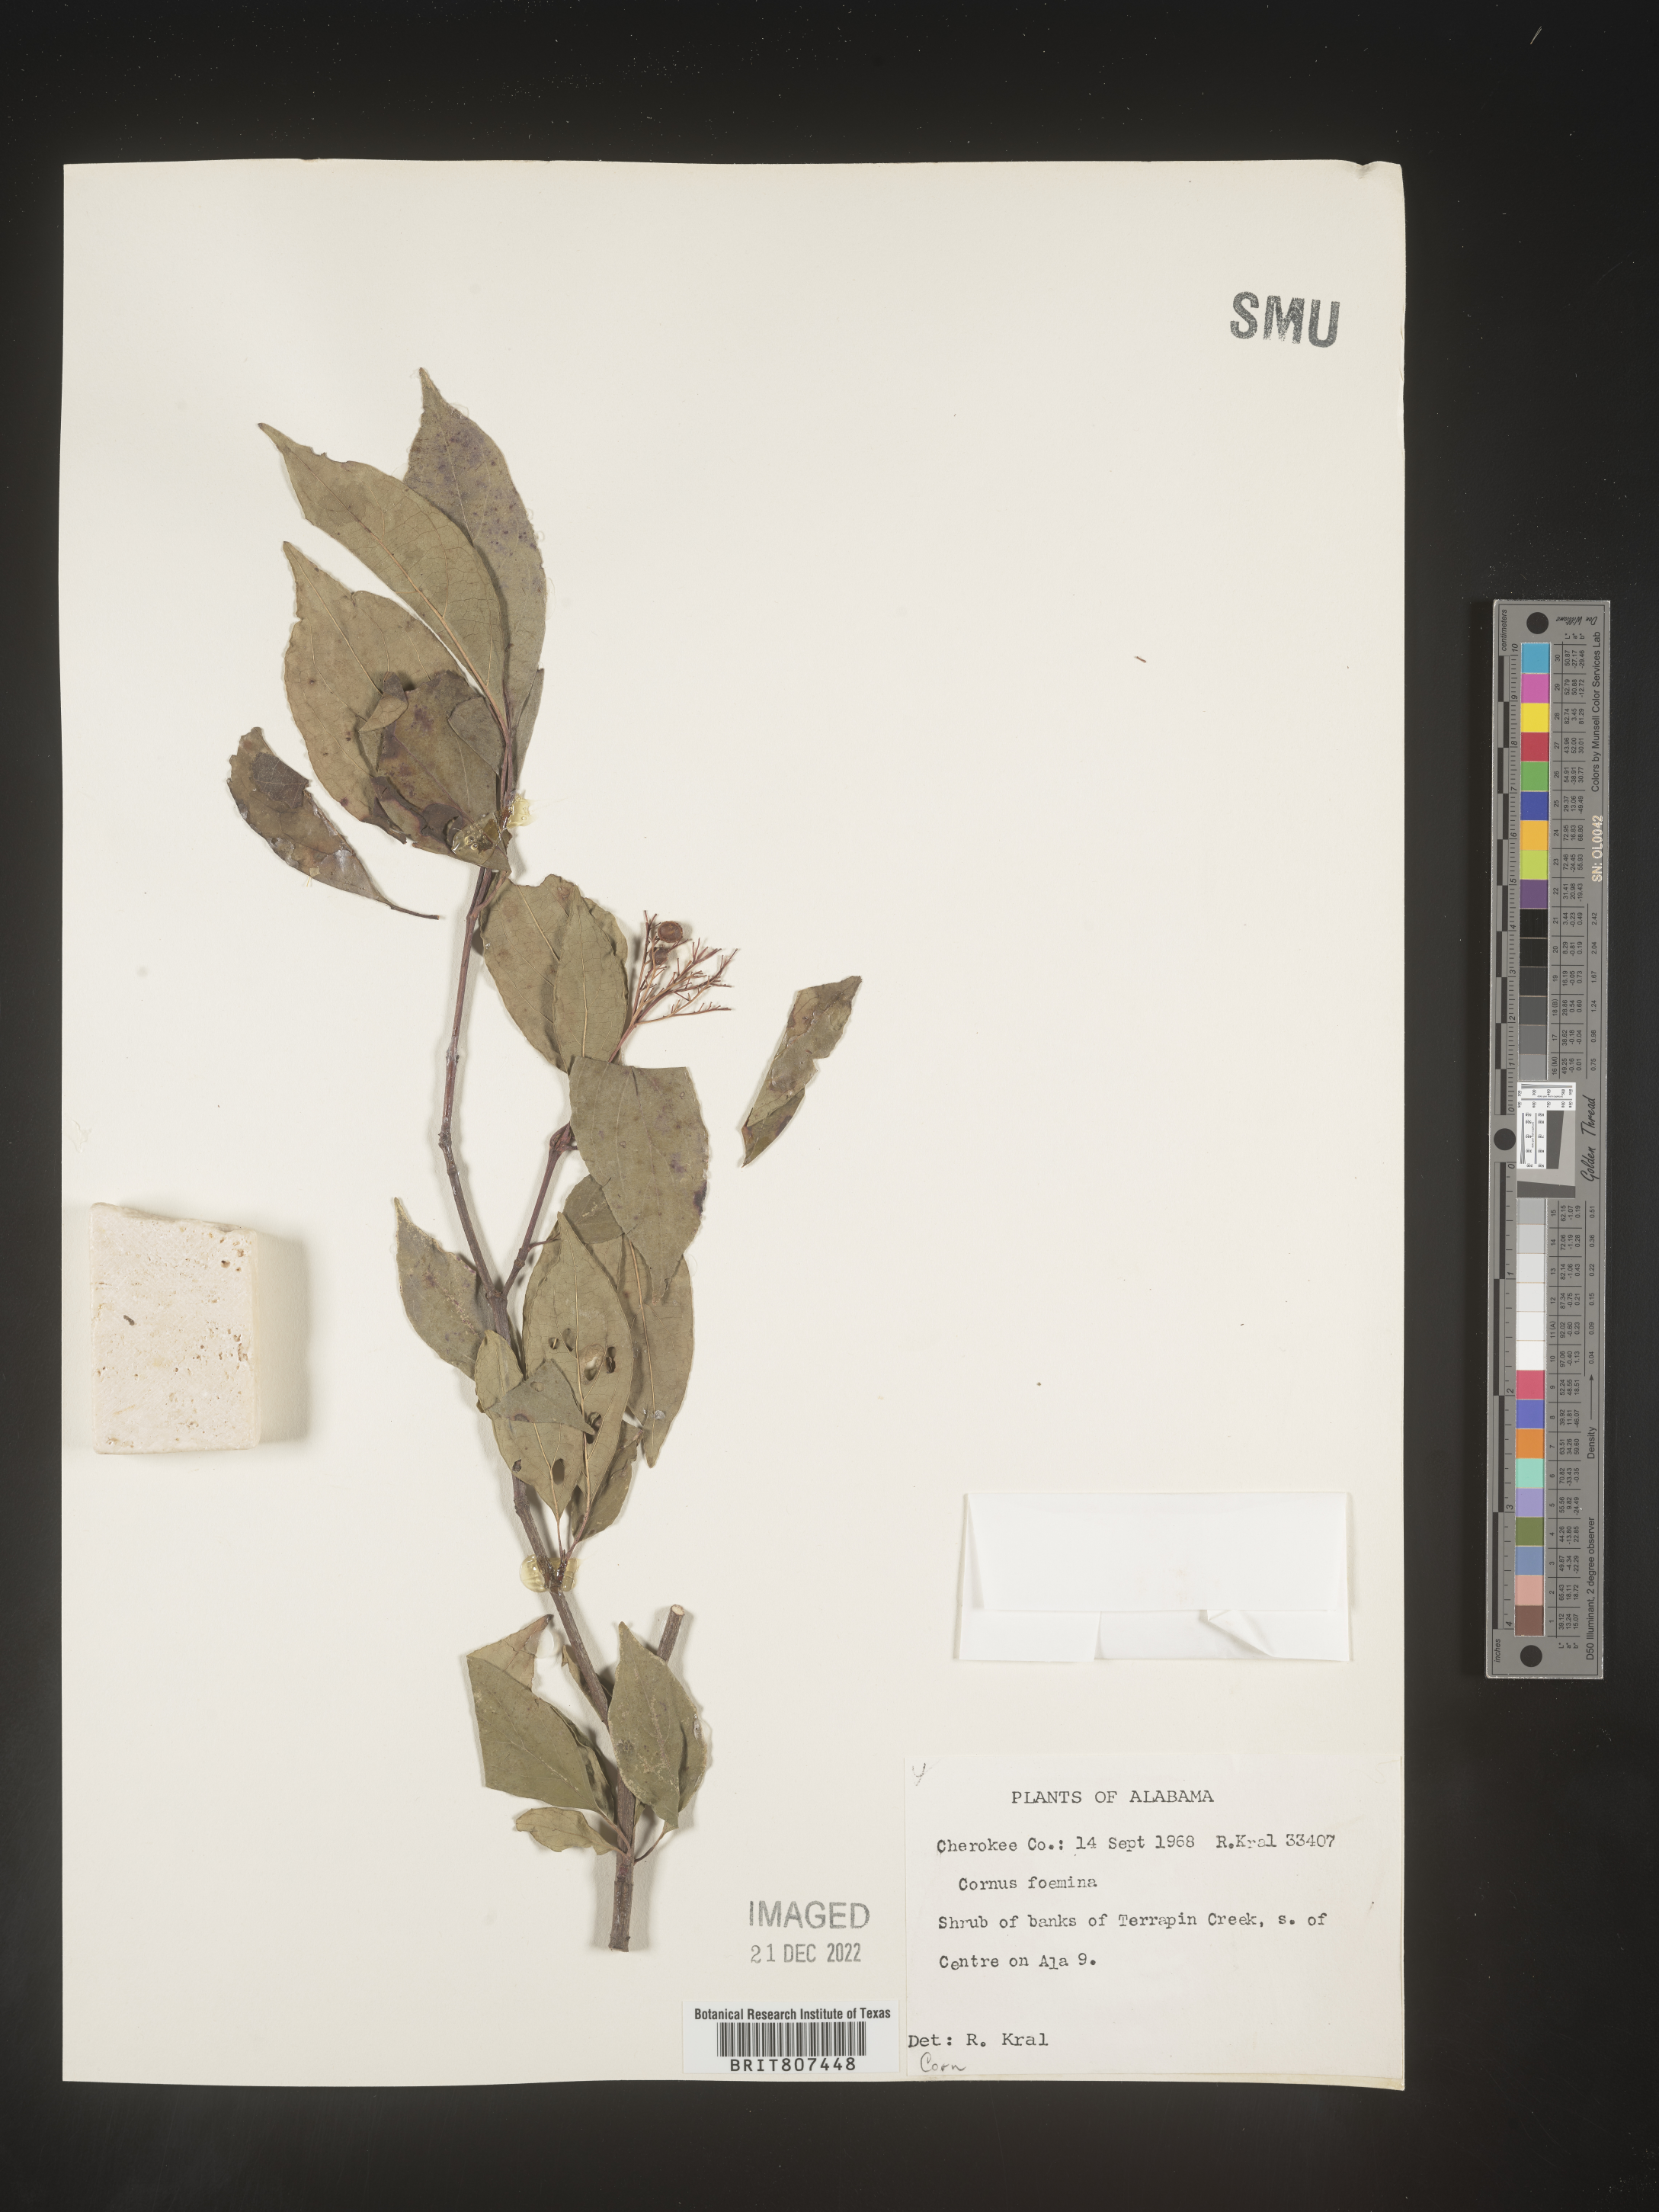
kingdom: Plantae
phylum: Tracheophyta
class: Magnoliopsida
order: Cornales
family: Cornaceae
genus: Cornus
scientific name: Cornus foemina
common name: Swamp dogwood
